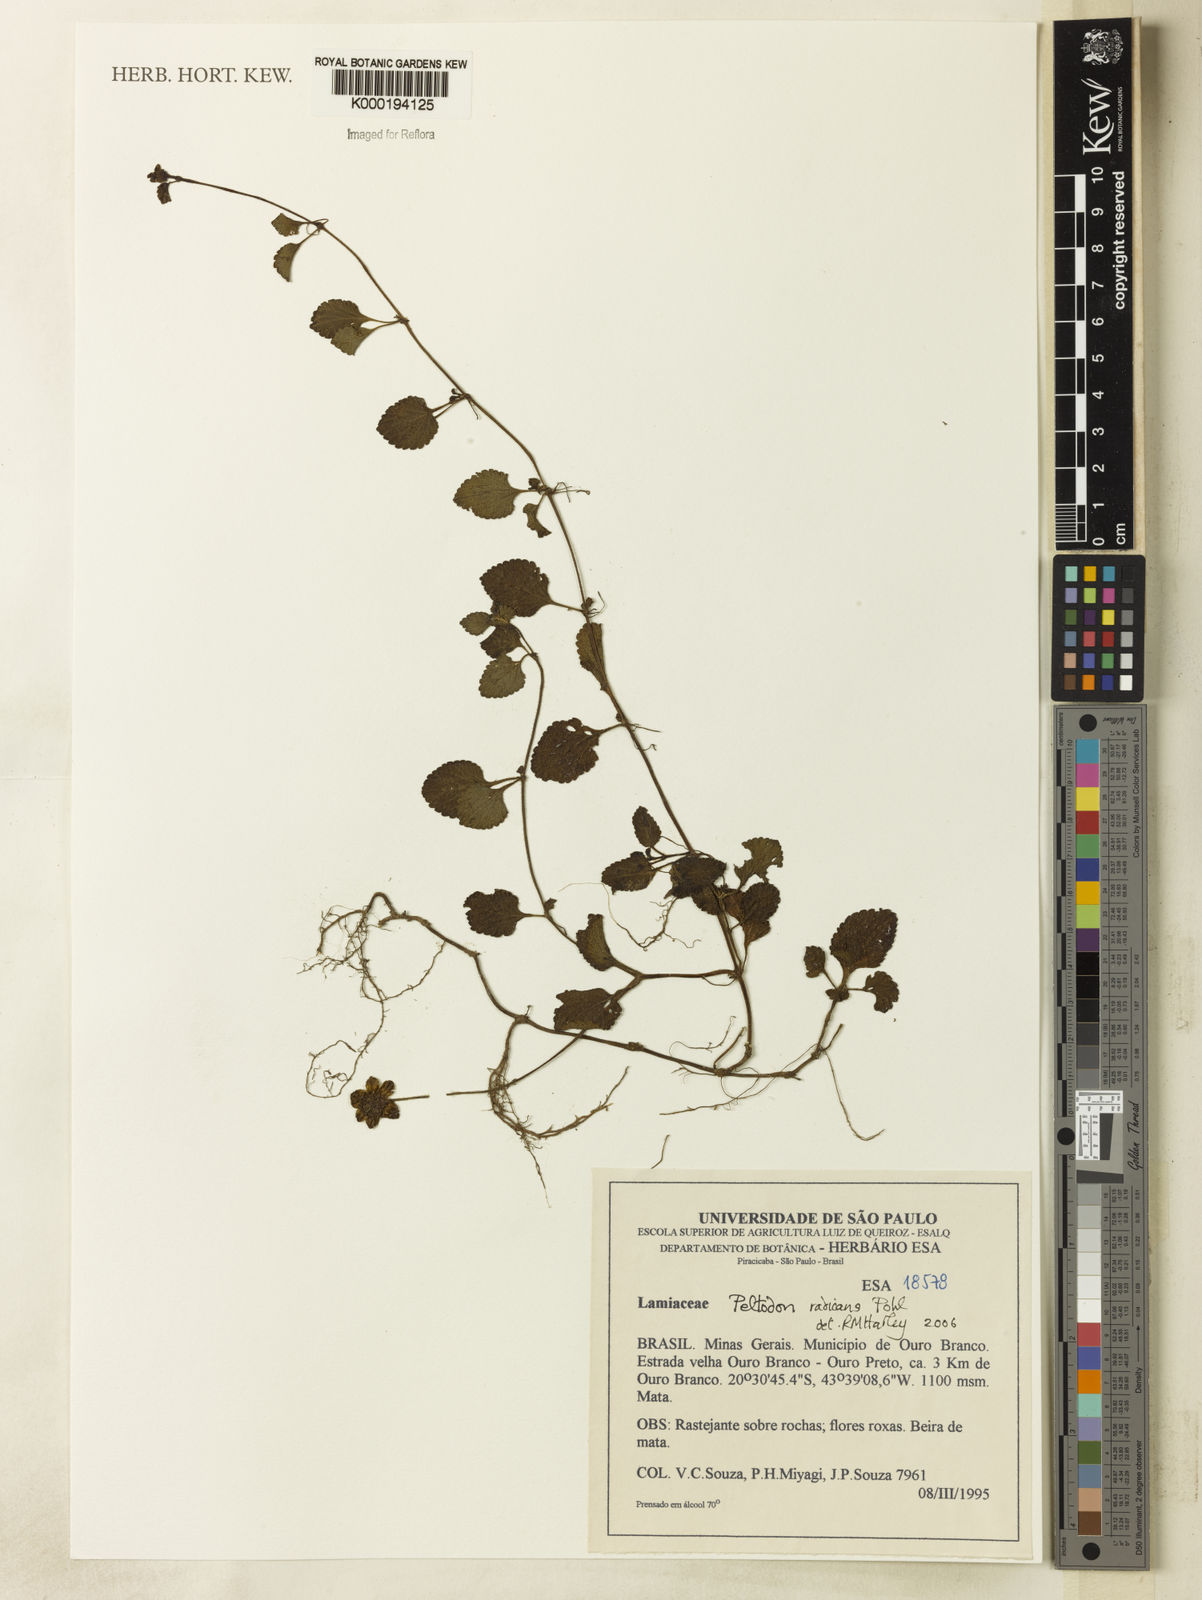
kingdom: Plantae
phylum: Tracheophyta
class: Magnoliopsida
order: Lamiales
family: Lamiaceae
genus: Hyptis
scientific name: Hyptis radicans
